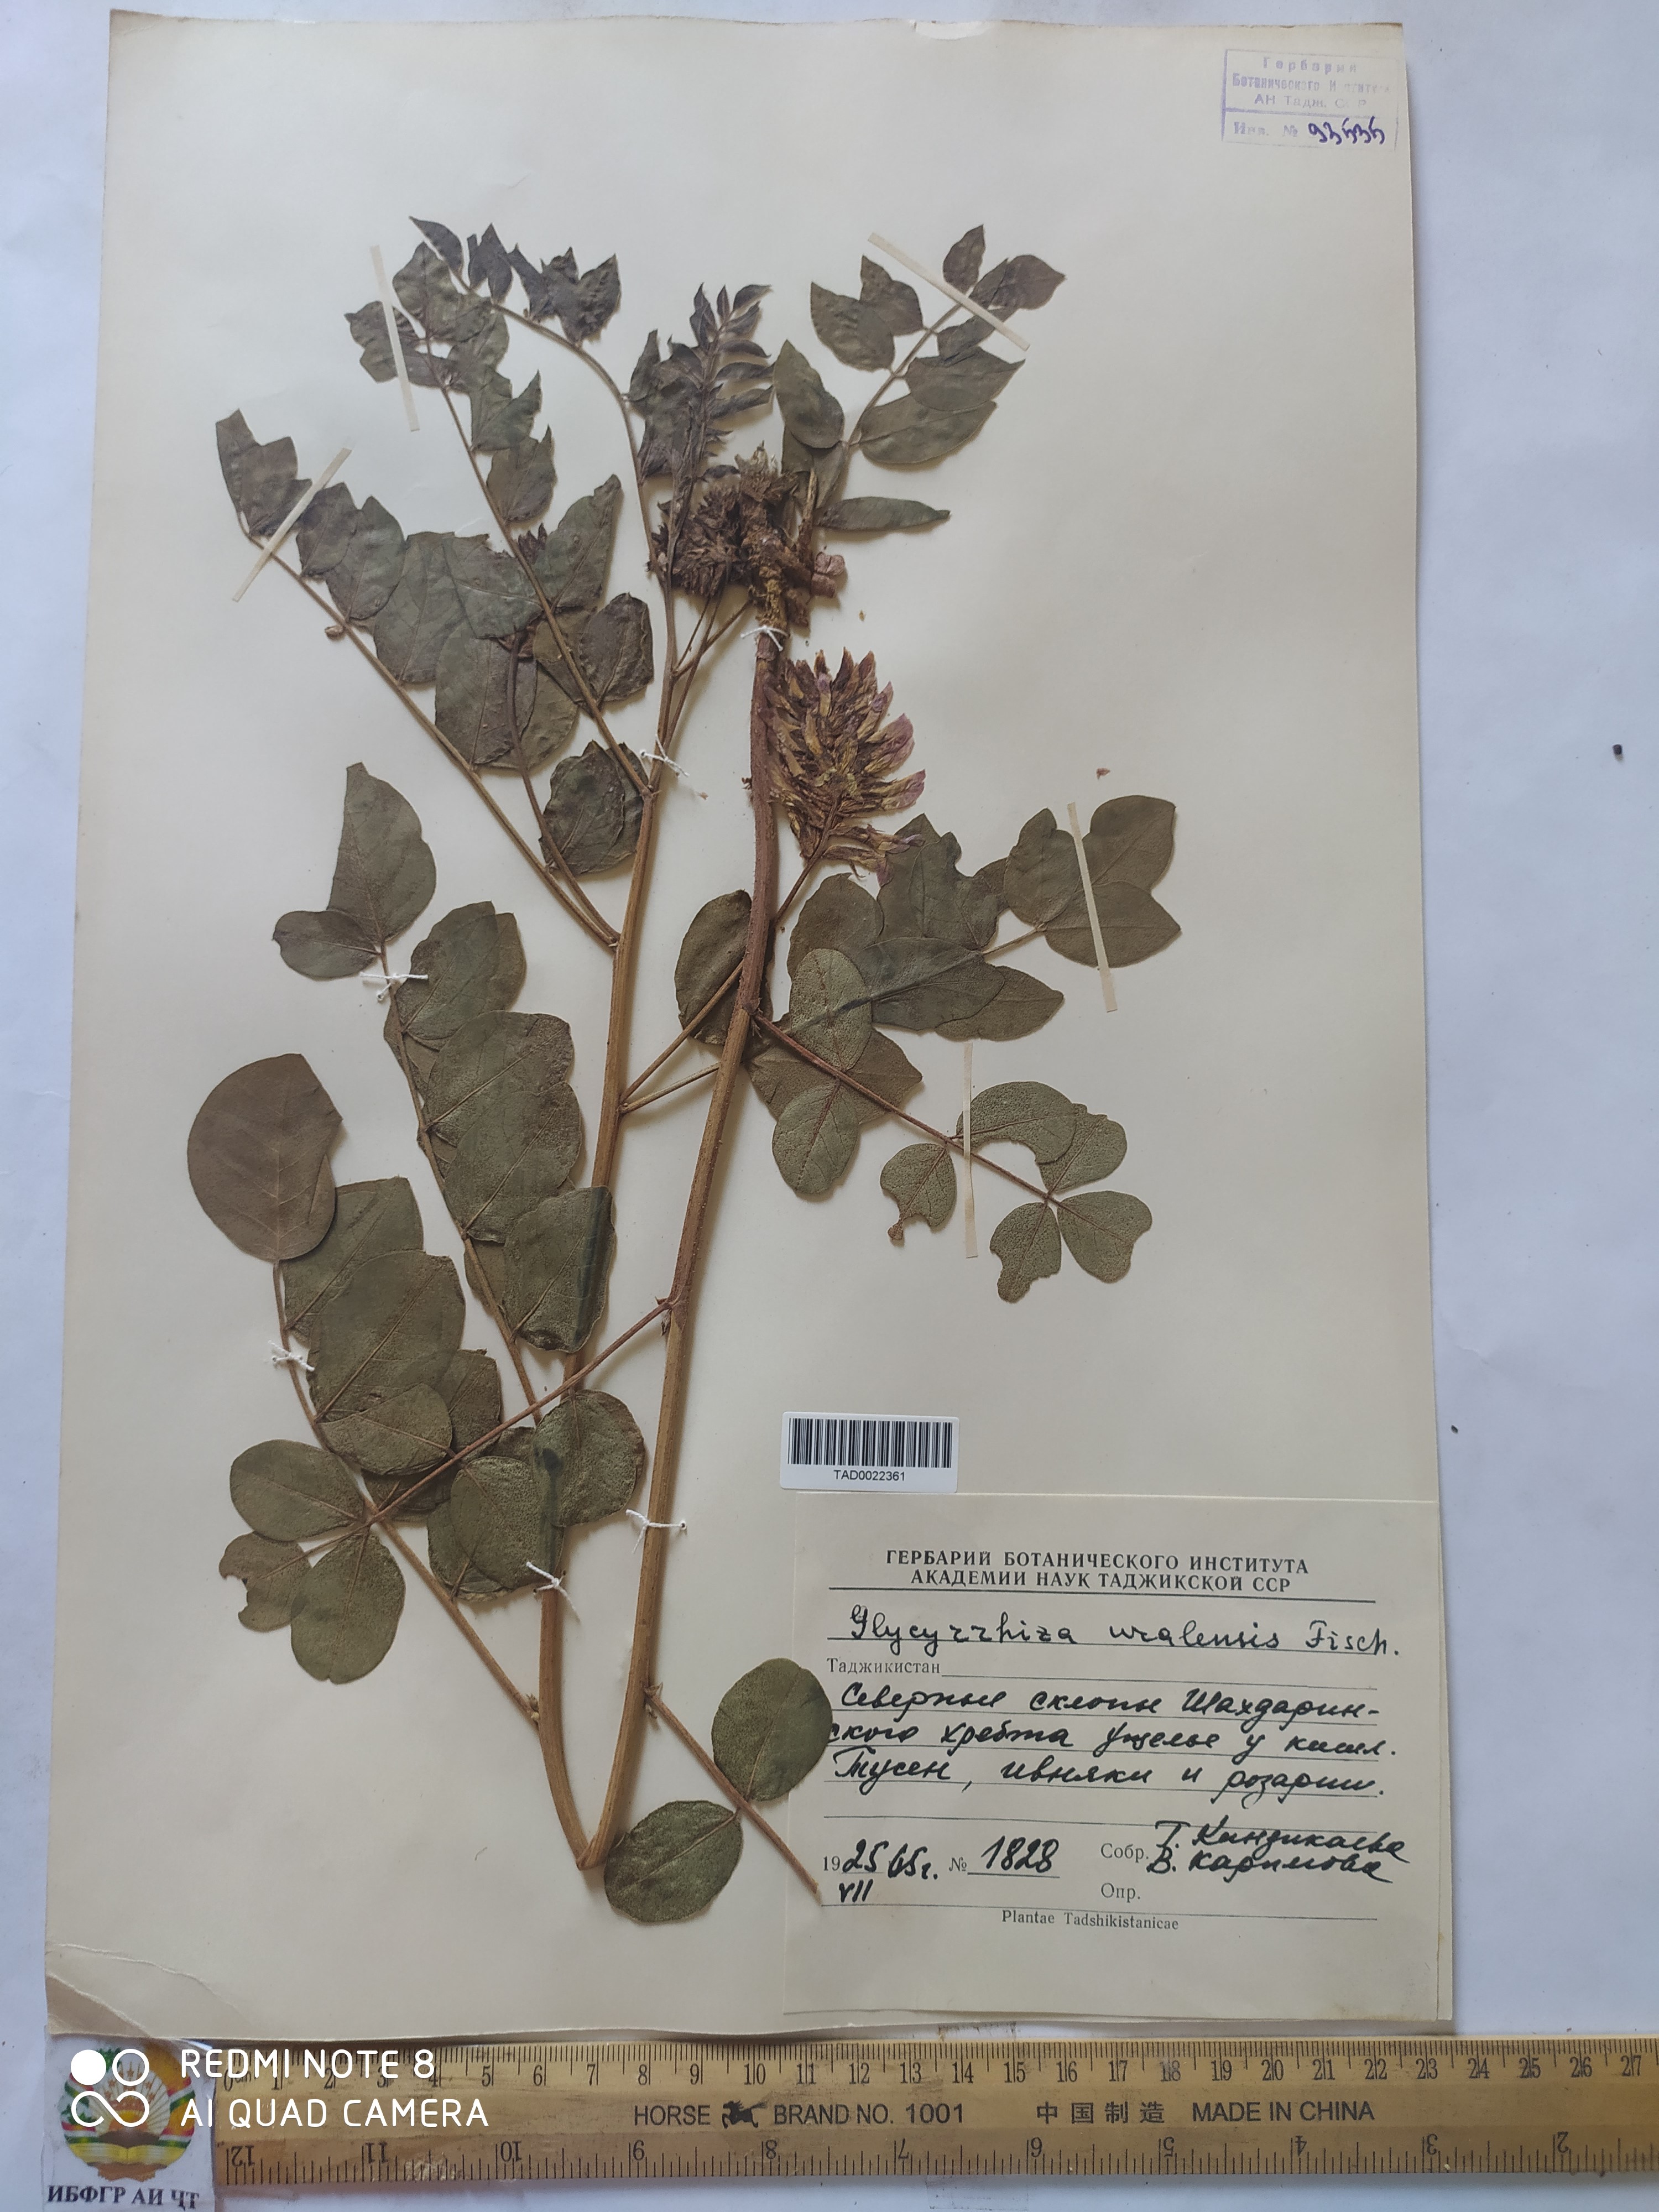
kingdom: Plantae
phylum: Tracheophyta
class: Magnoliopsida
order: Fabales
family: Fabaceae
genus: Glycyrrhiza
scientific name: Glycyrrhiza uralensis
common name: Chinese licorice
